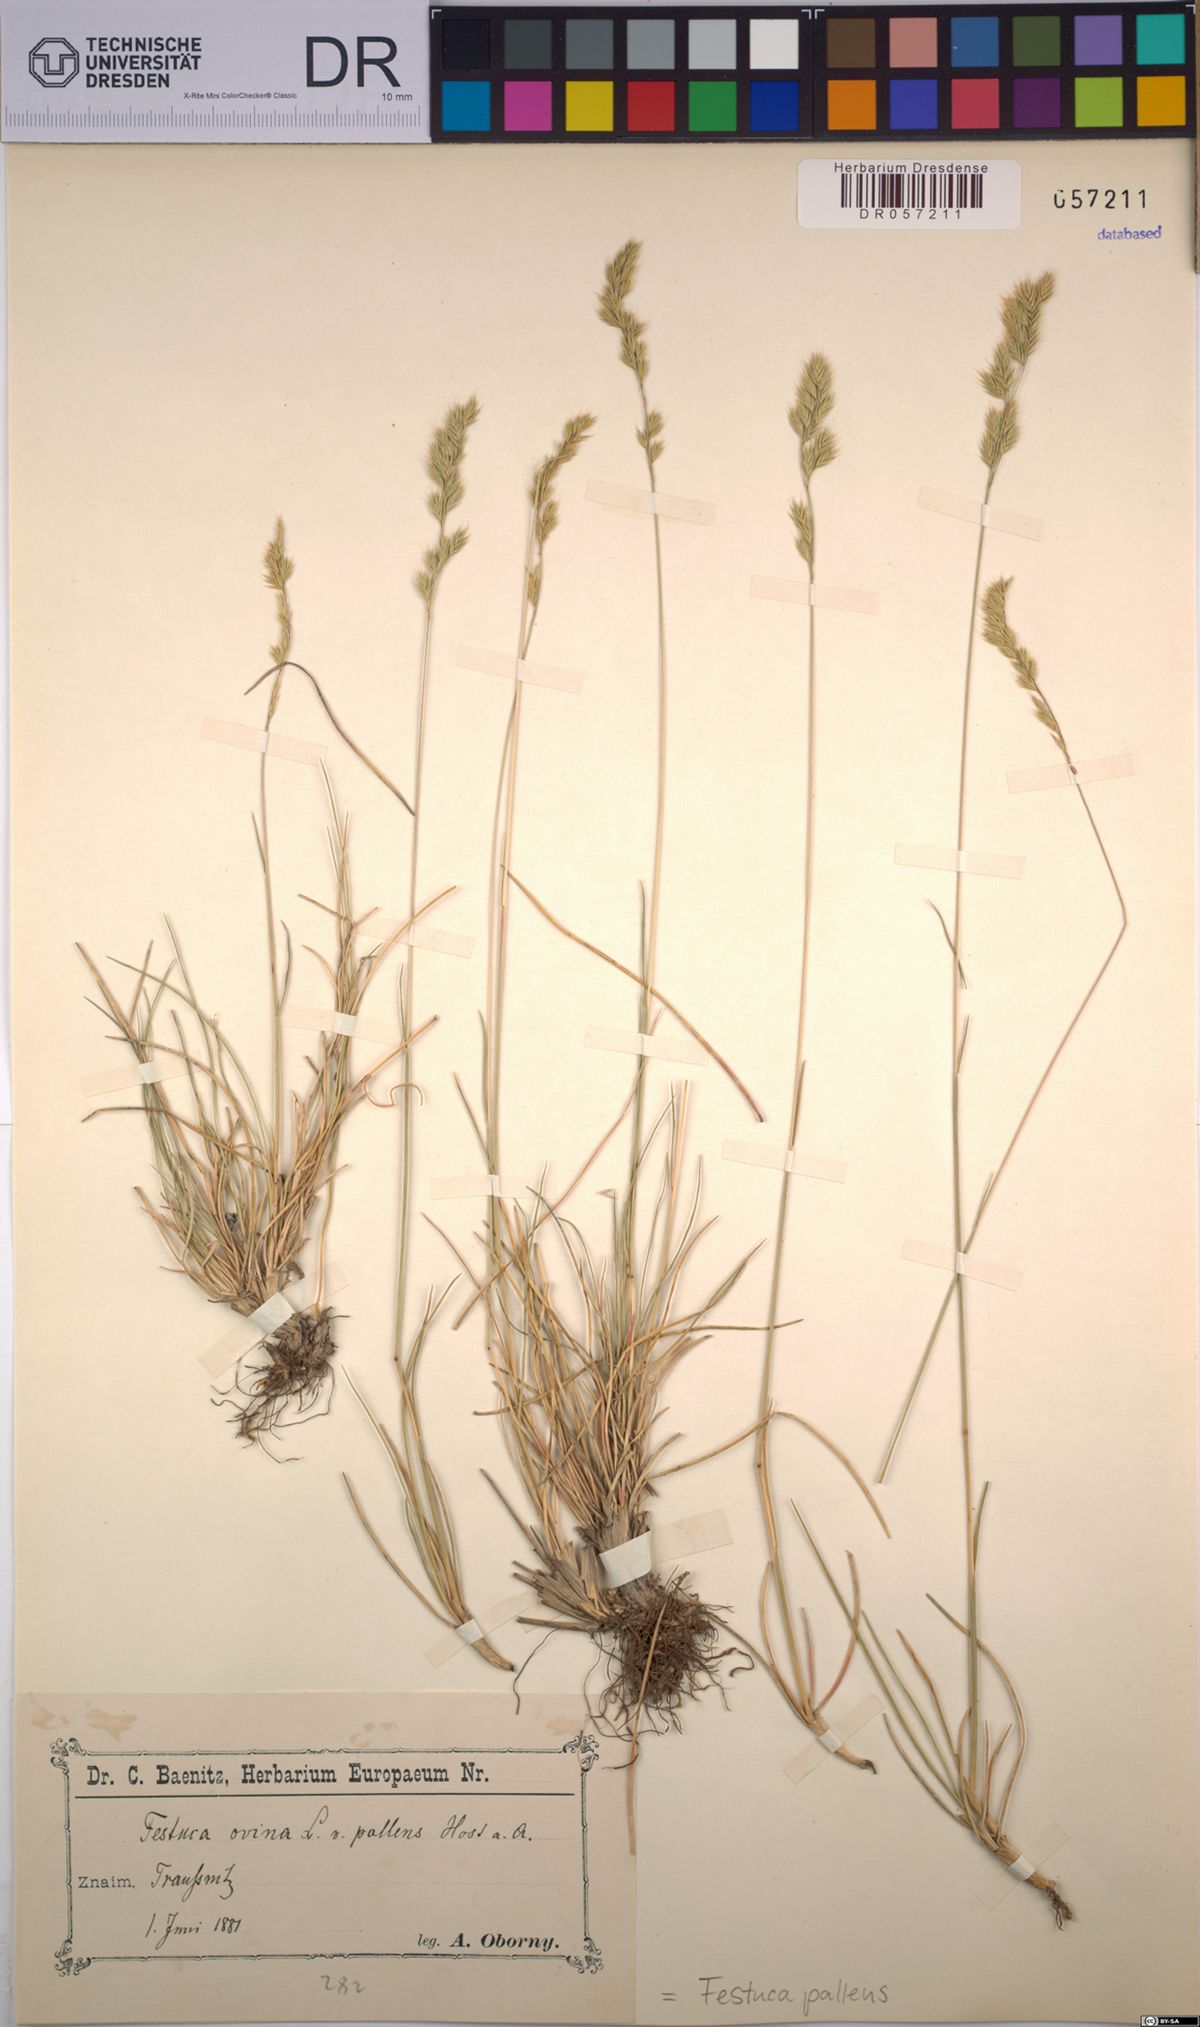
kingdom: Plantae
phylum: Tracheophyta
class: Liliopsida
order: Poales
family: Poaceae
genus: Festuca
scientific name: Festuca pallens
